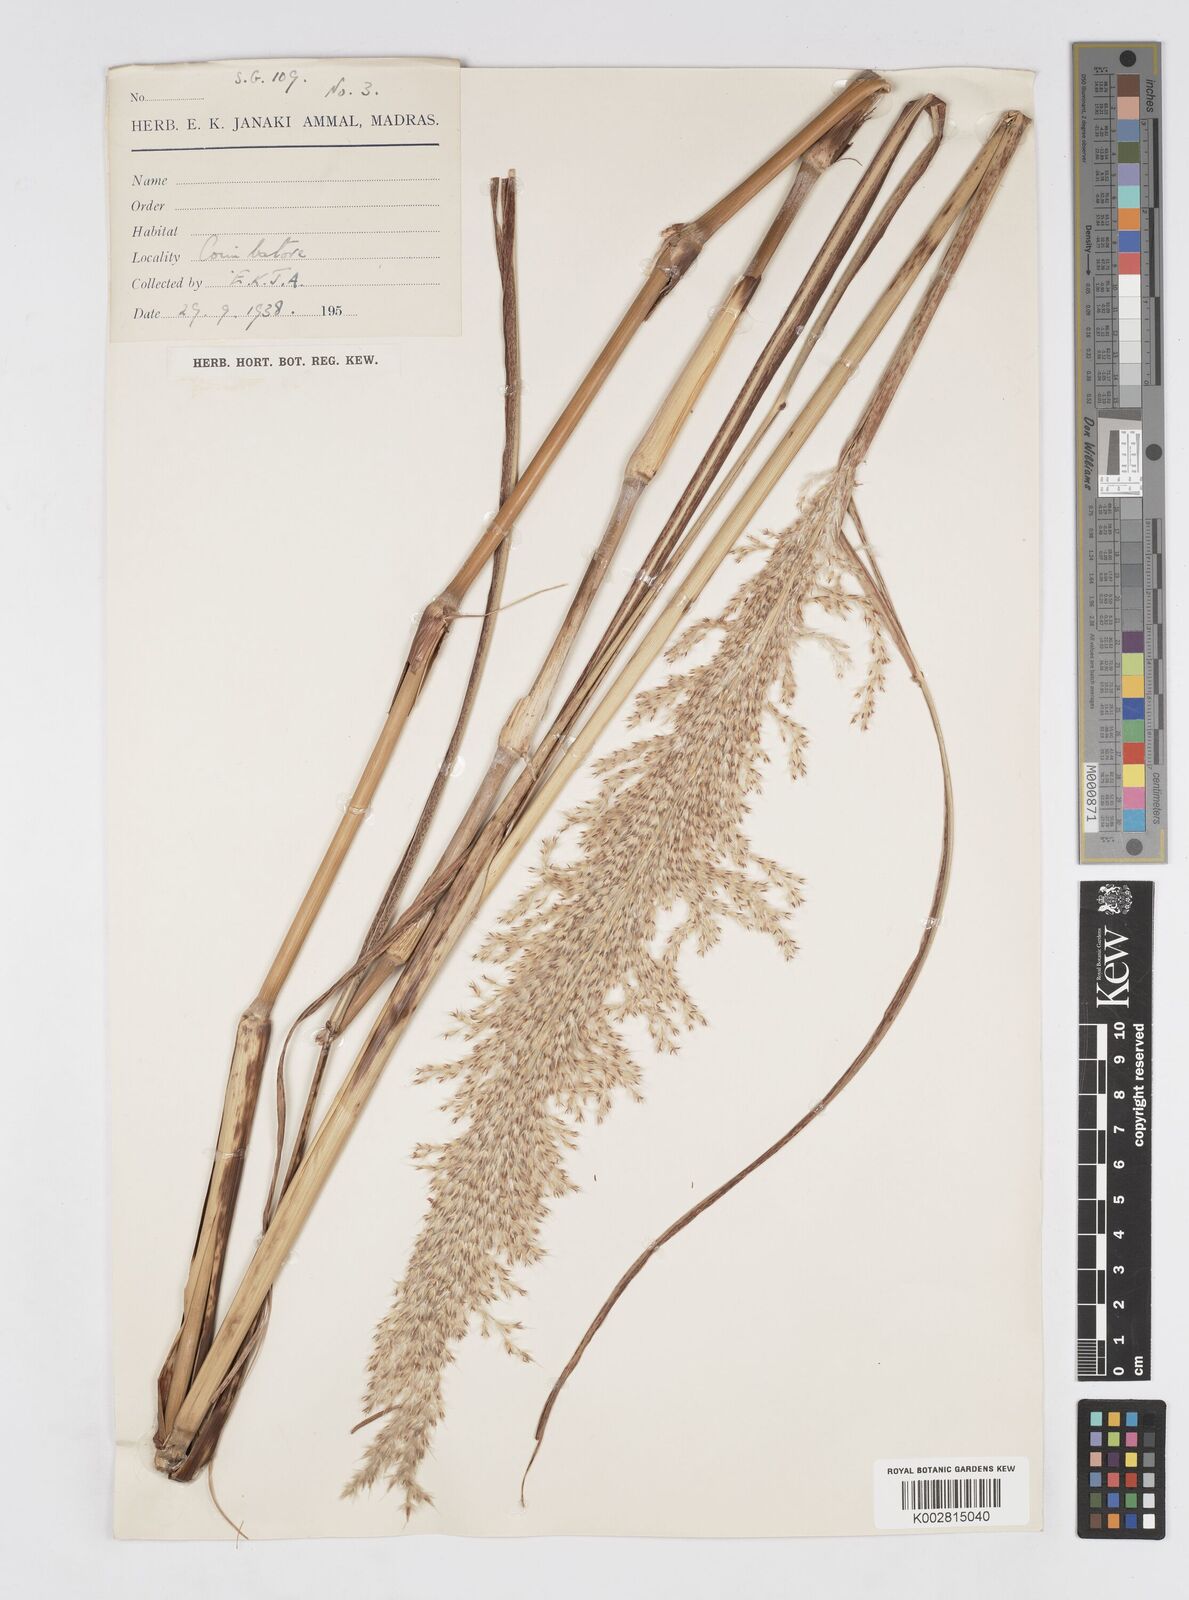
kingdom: Plantae
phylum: Tracheophyta
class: Liliopsida
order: Poales
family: Poaceae
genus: Saccharum
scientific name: Saccharum
